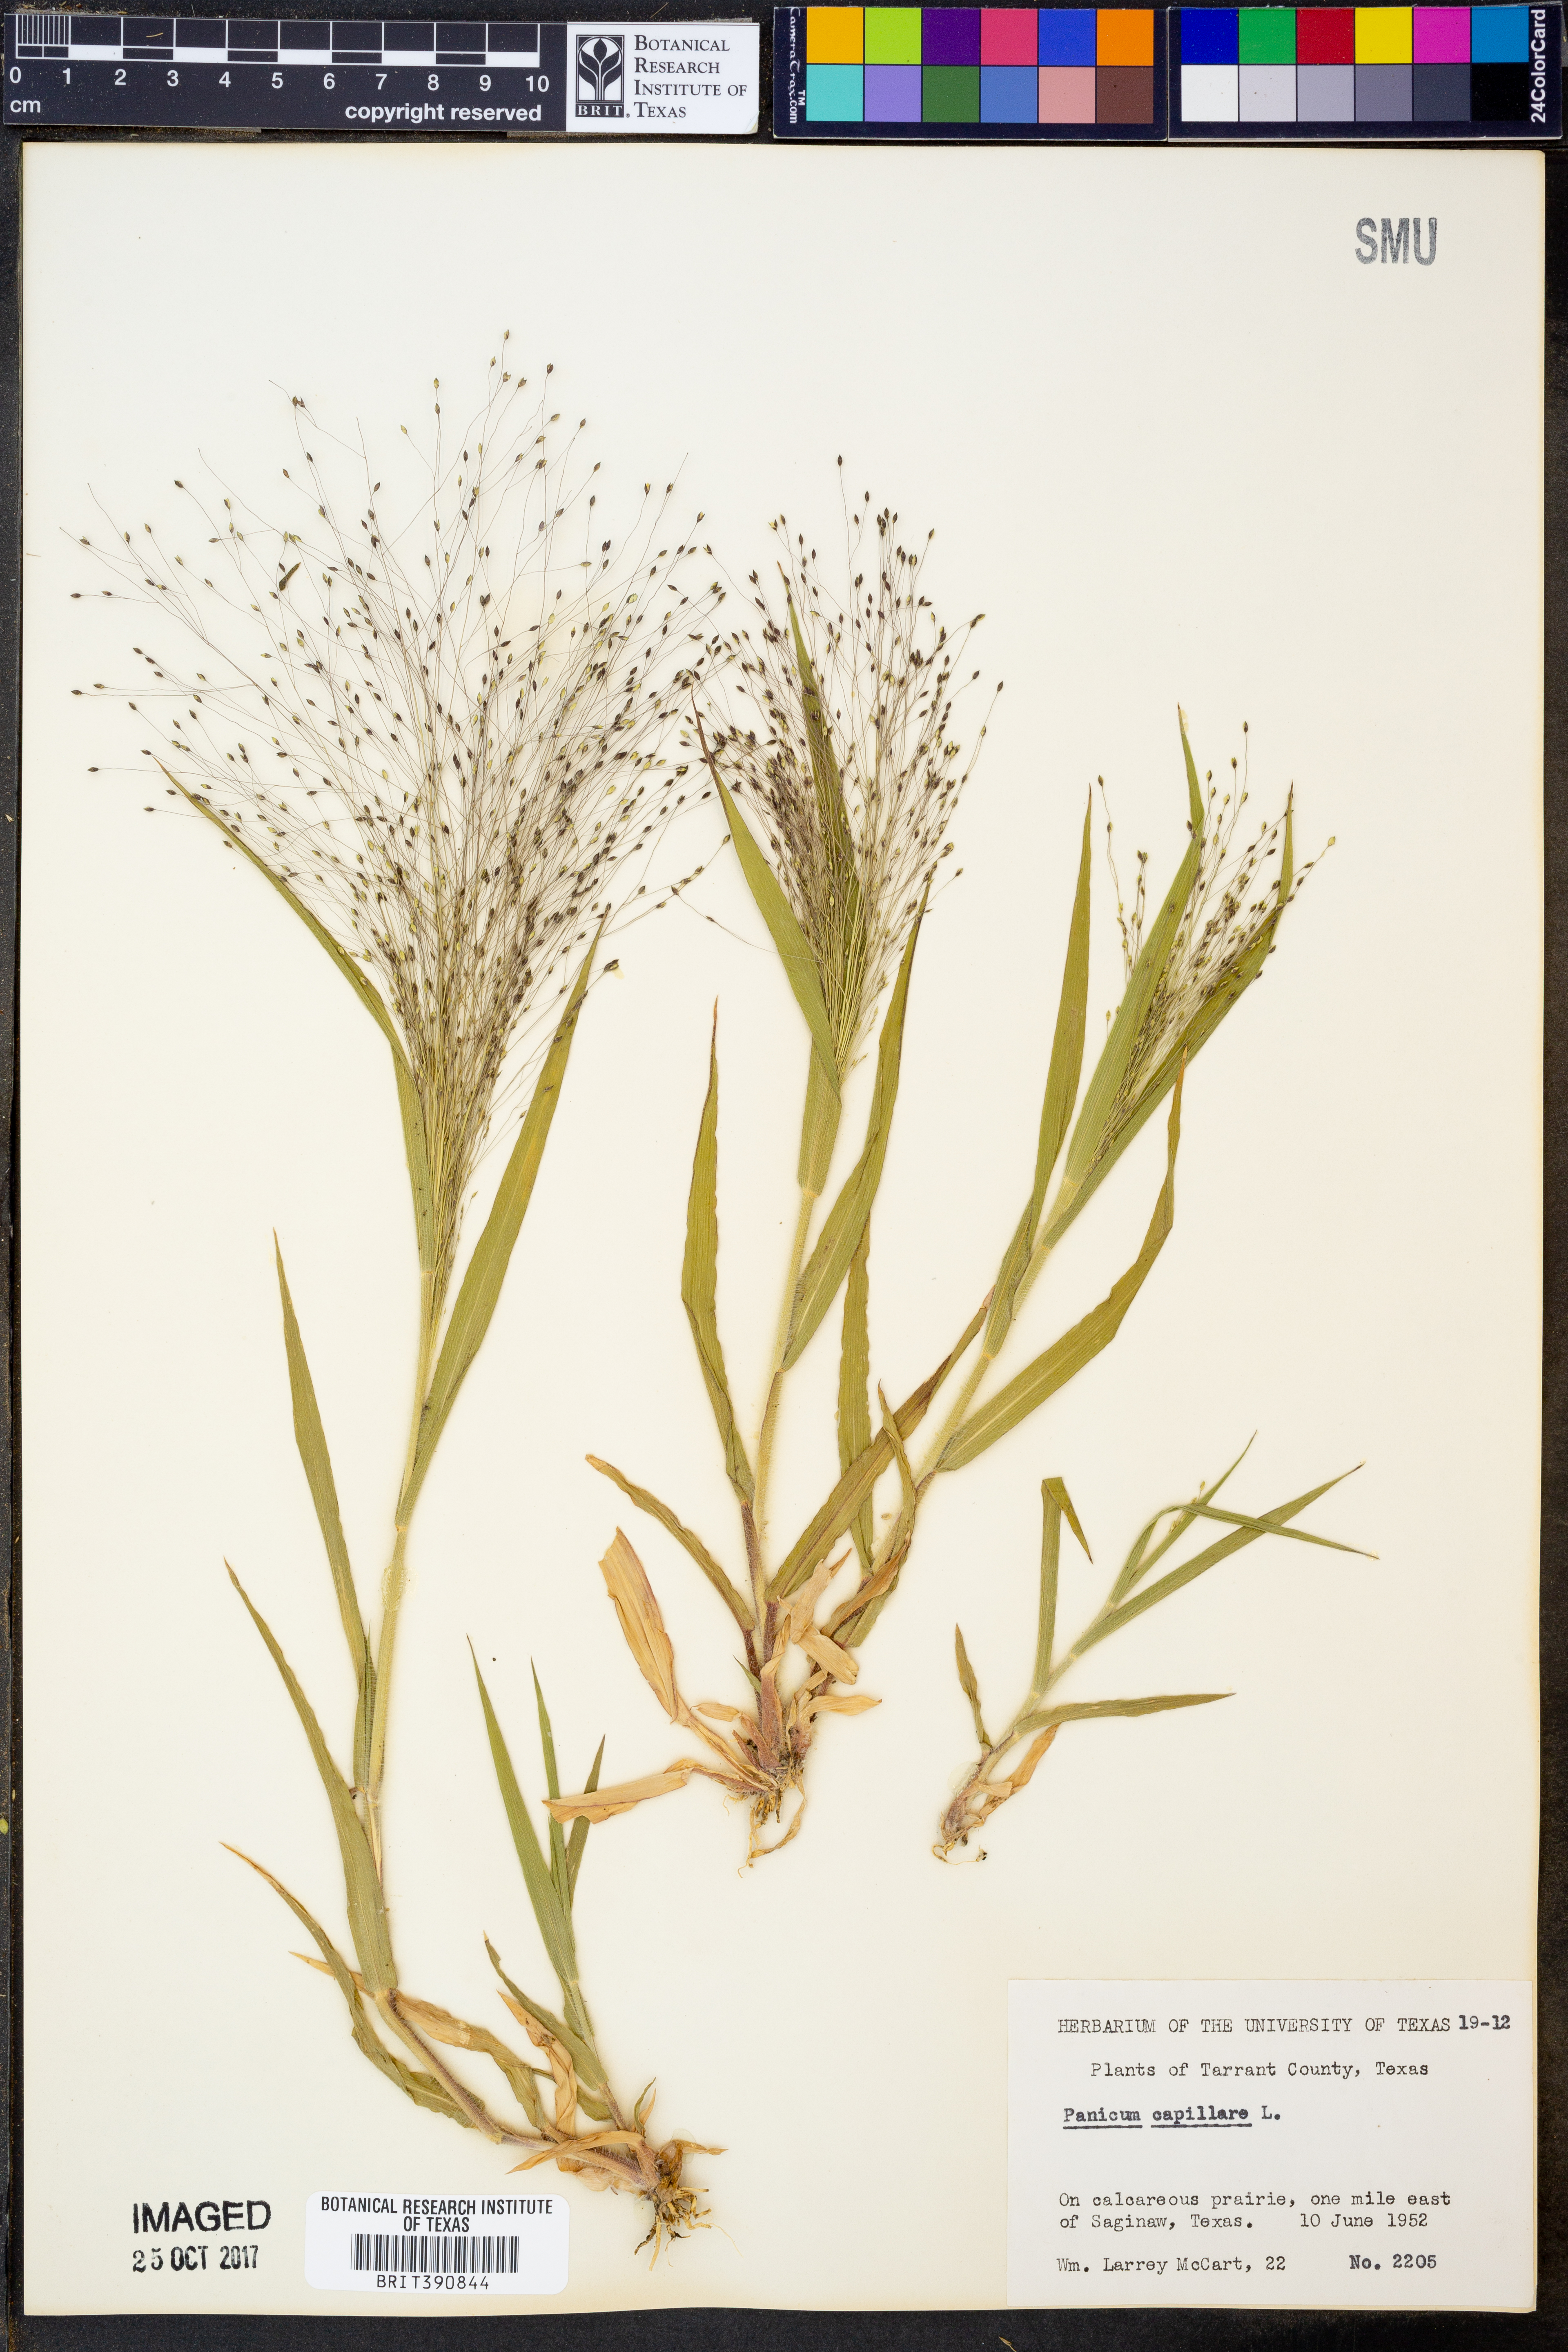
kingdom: Plantae
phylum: Tracheophyta
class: Liliopsida
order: Poales
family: Poaceae
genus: Panicum
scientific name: Panicum capillare
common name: Witch-grass
